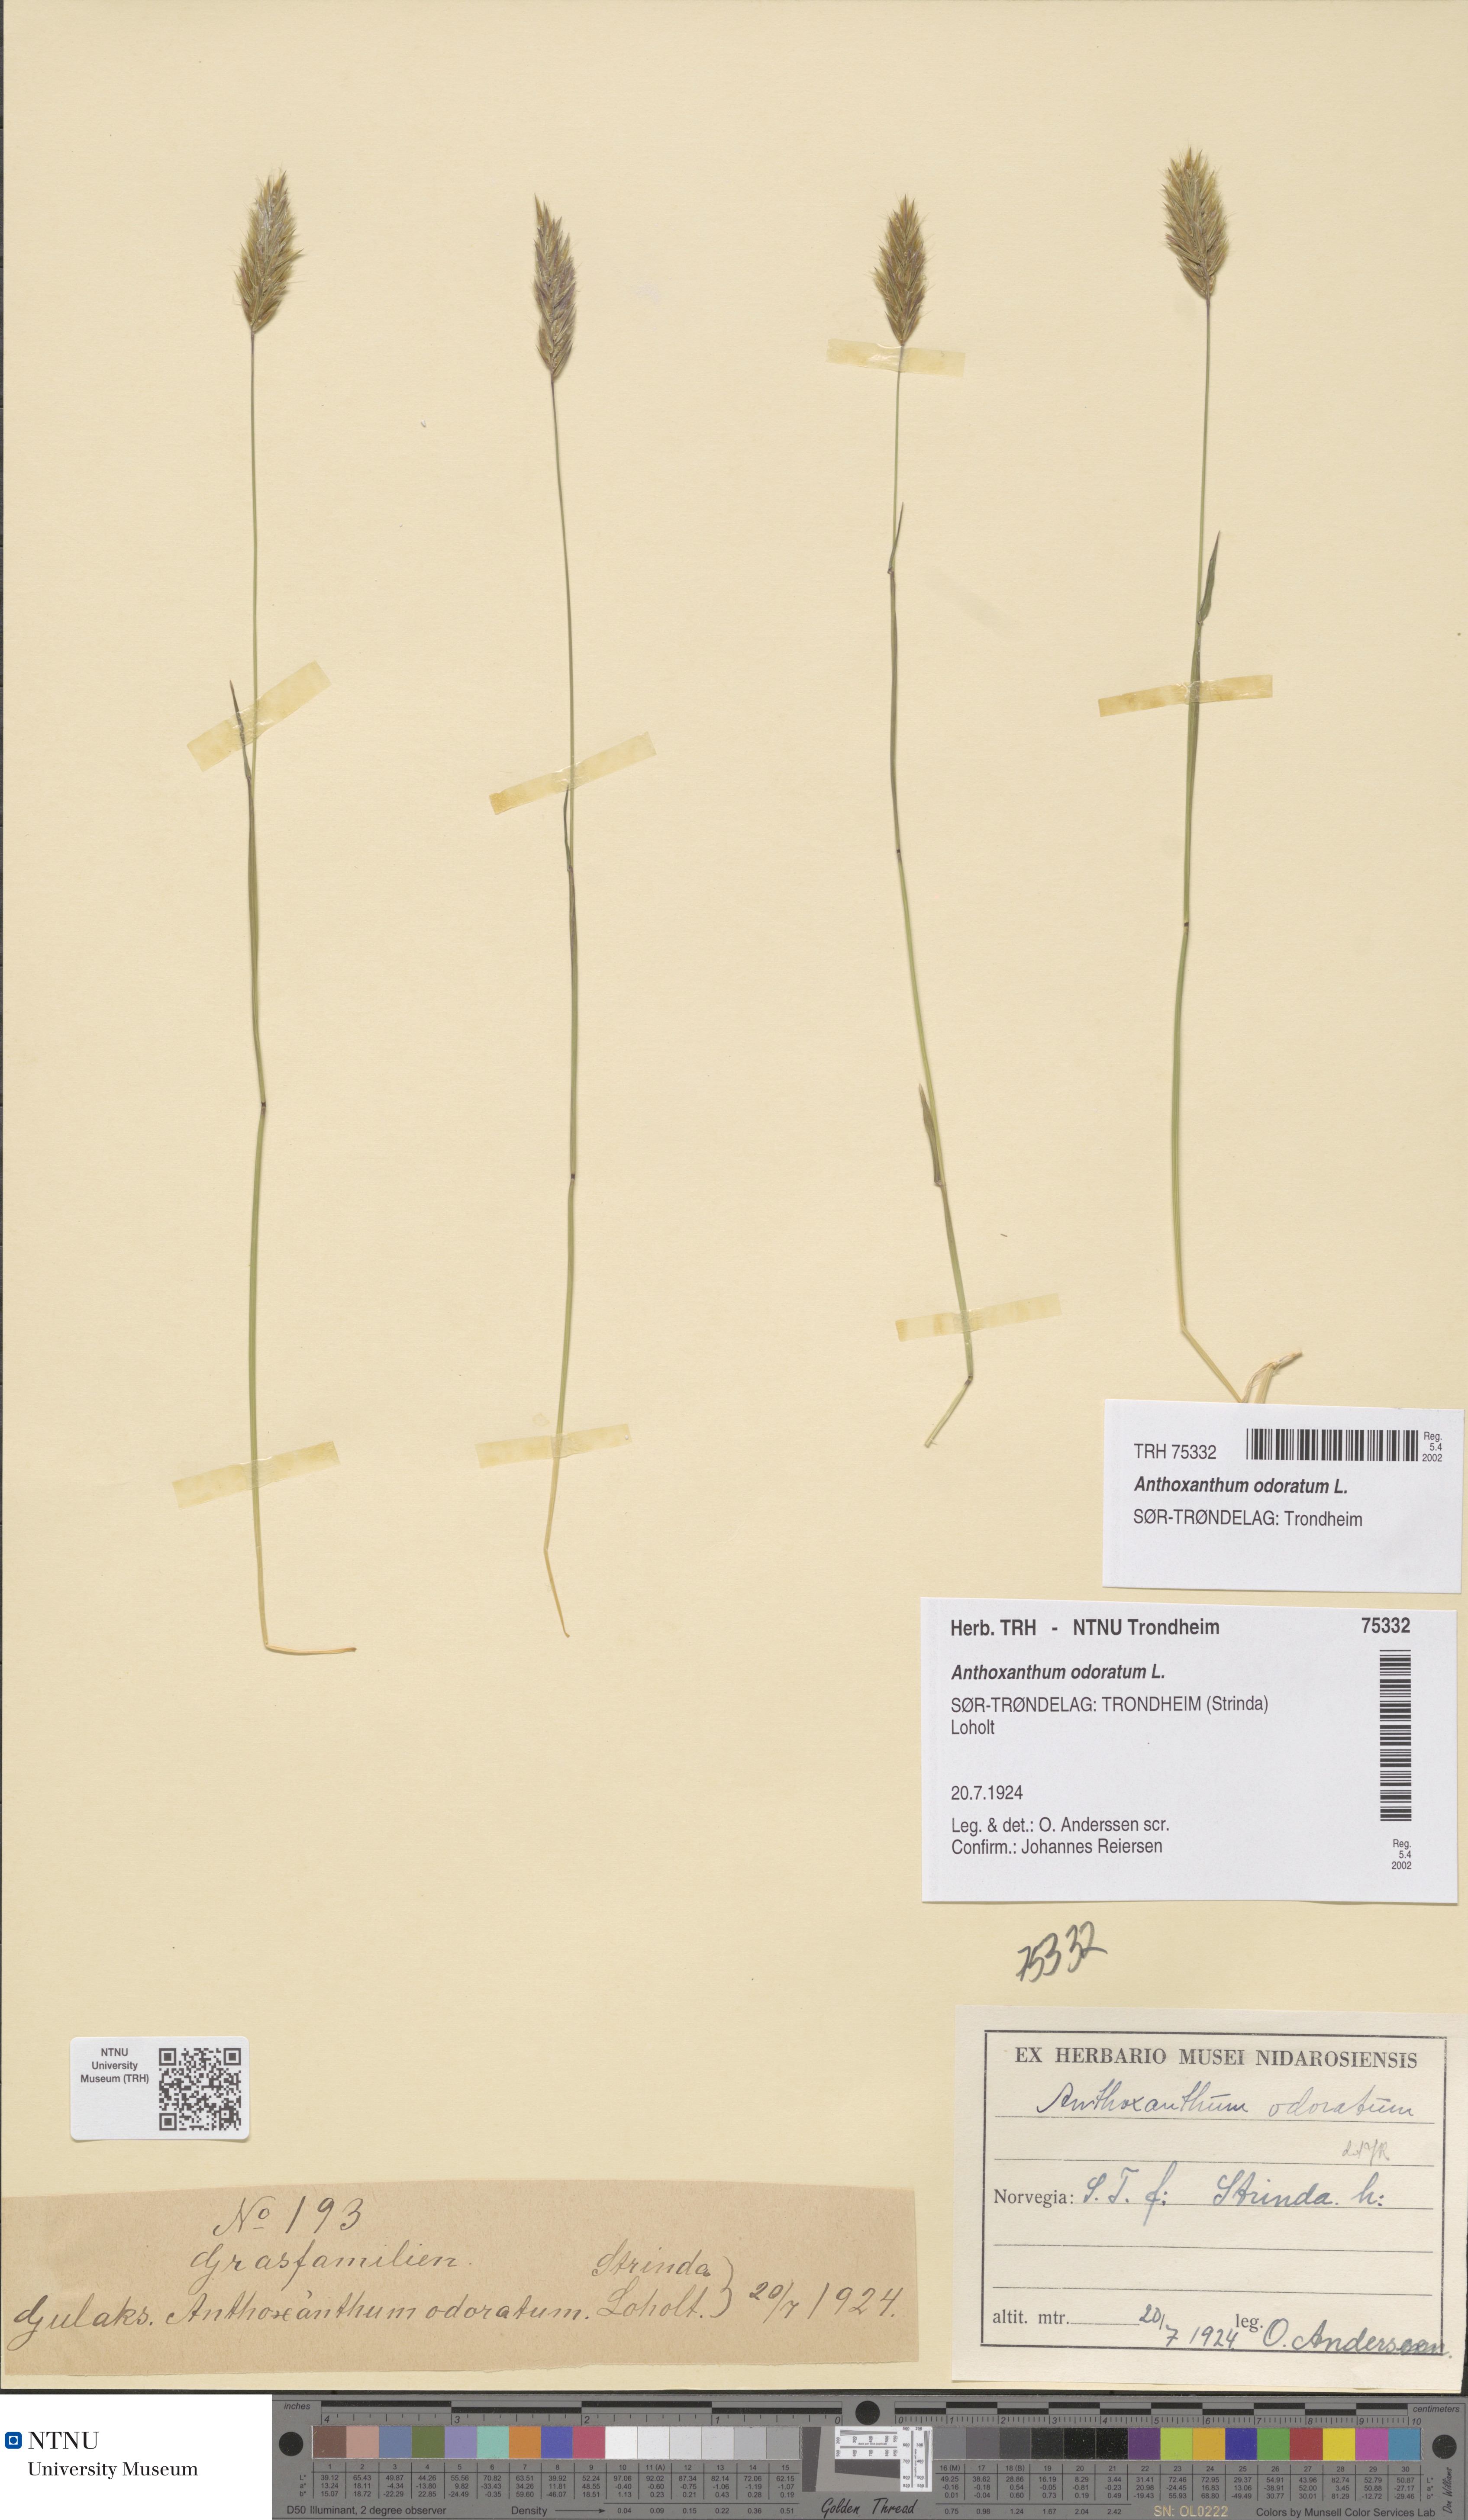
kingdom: Plantae
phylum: Tracheophyta
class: Liliopsida
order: Poales
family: Poaceae
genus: Anthoxanthum
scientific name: Anthoxanthum odoratum
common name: Sweet vernalgrass
